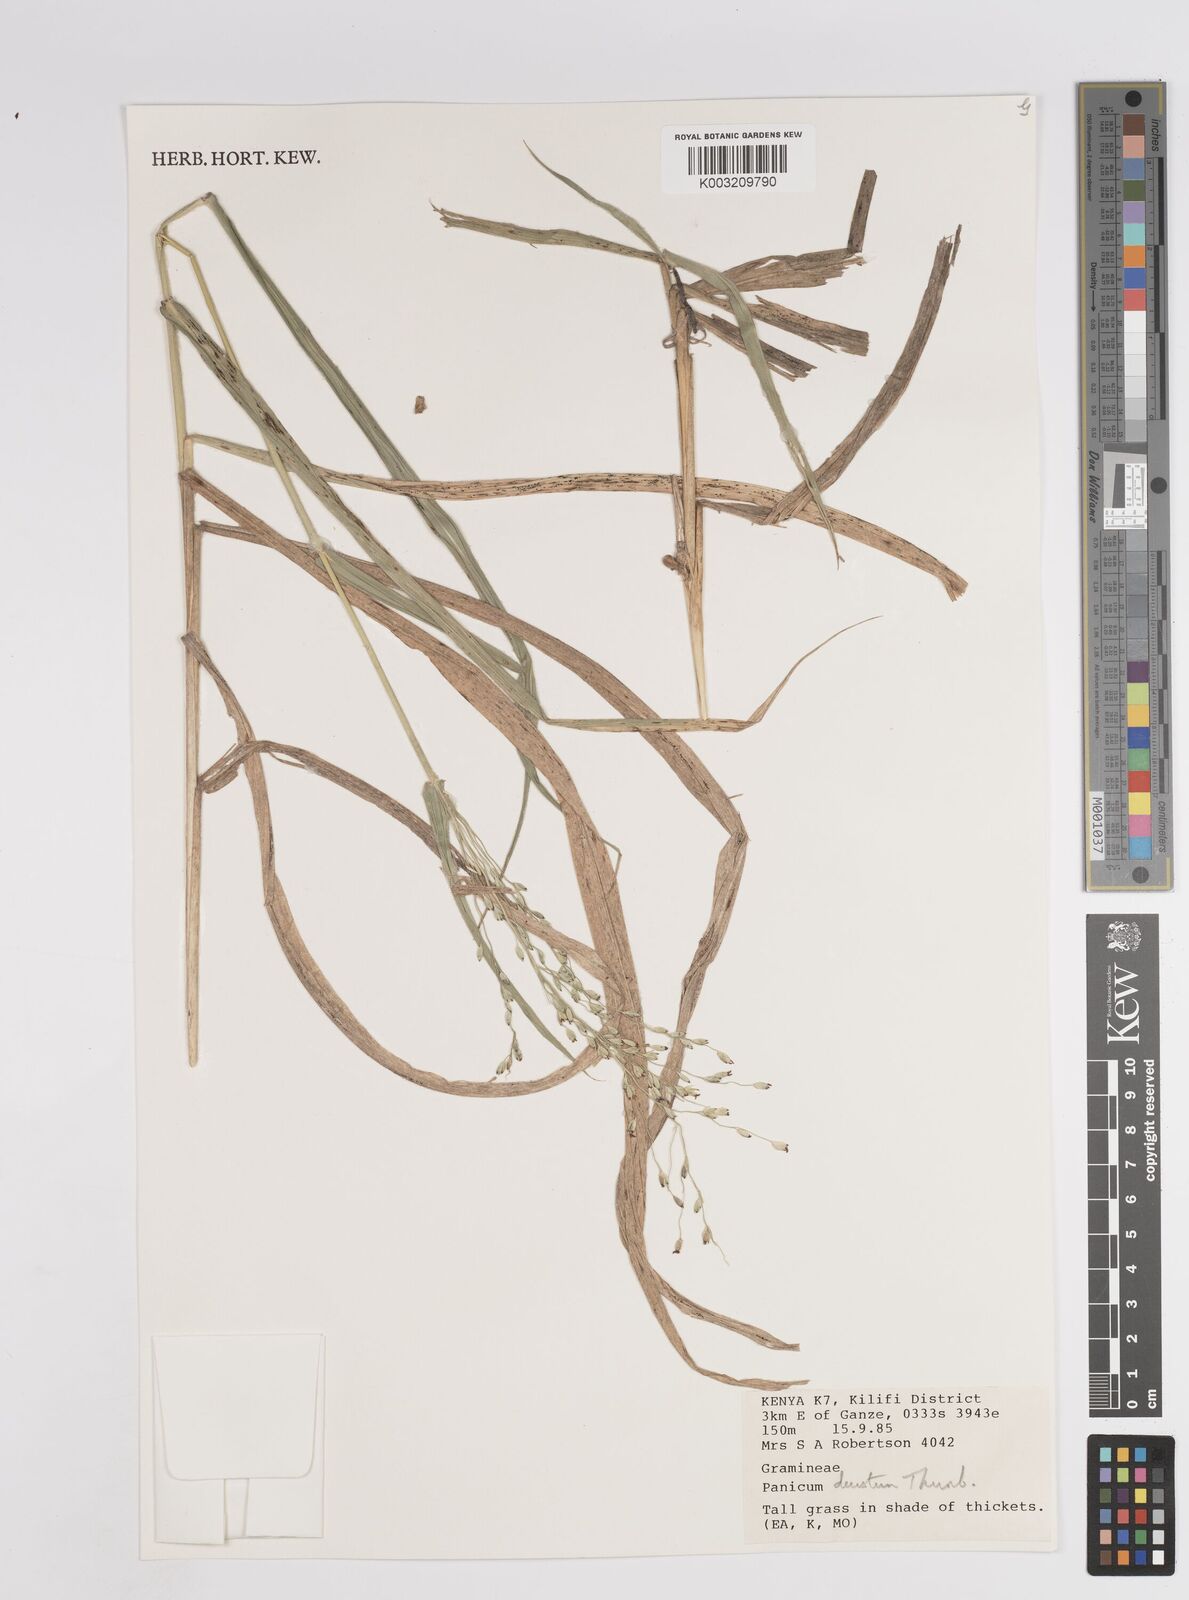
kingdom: Plantae
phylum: Tracheophyta
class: Liliopsida
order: Poales
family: Poaceae
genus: Panicum
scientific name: Panicum deustum
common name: Reed panicum
